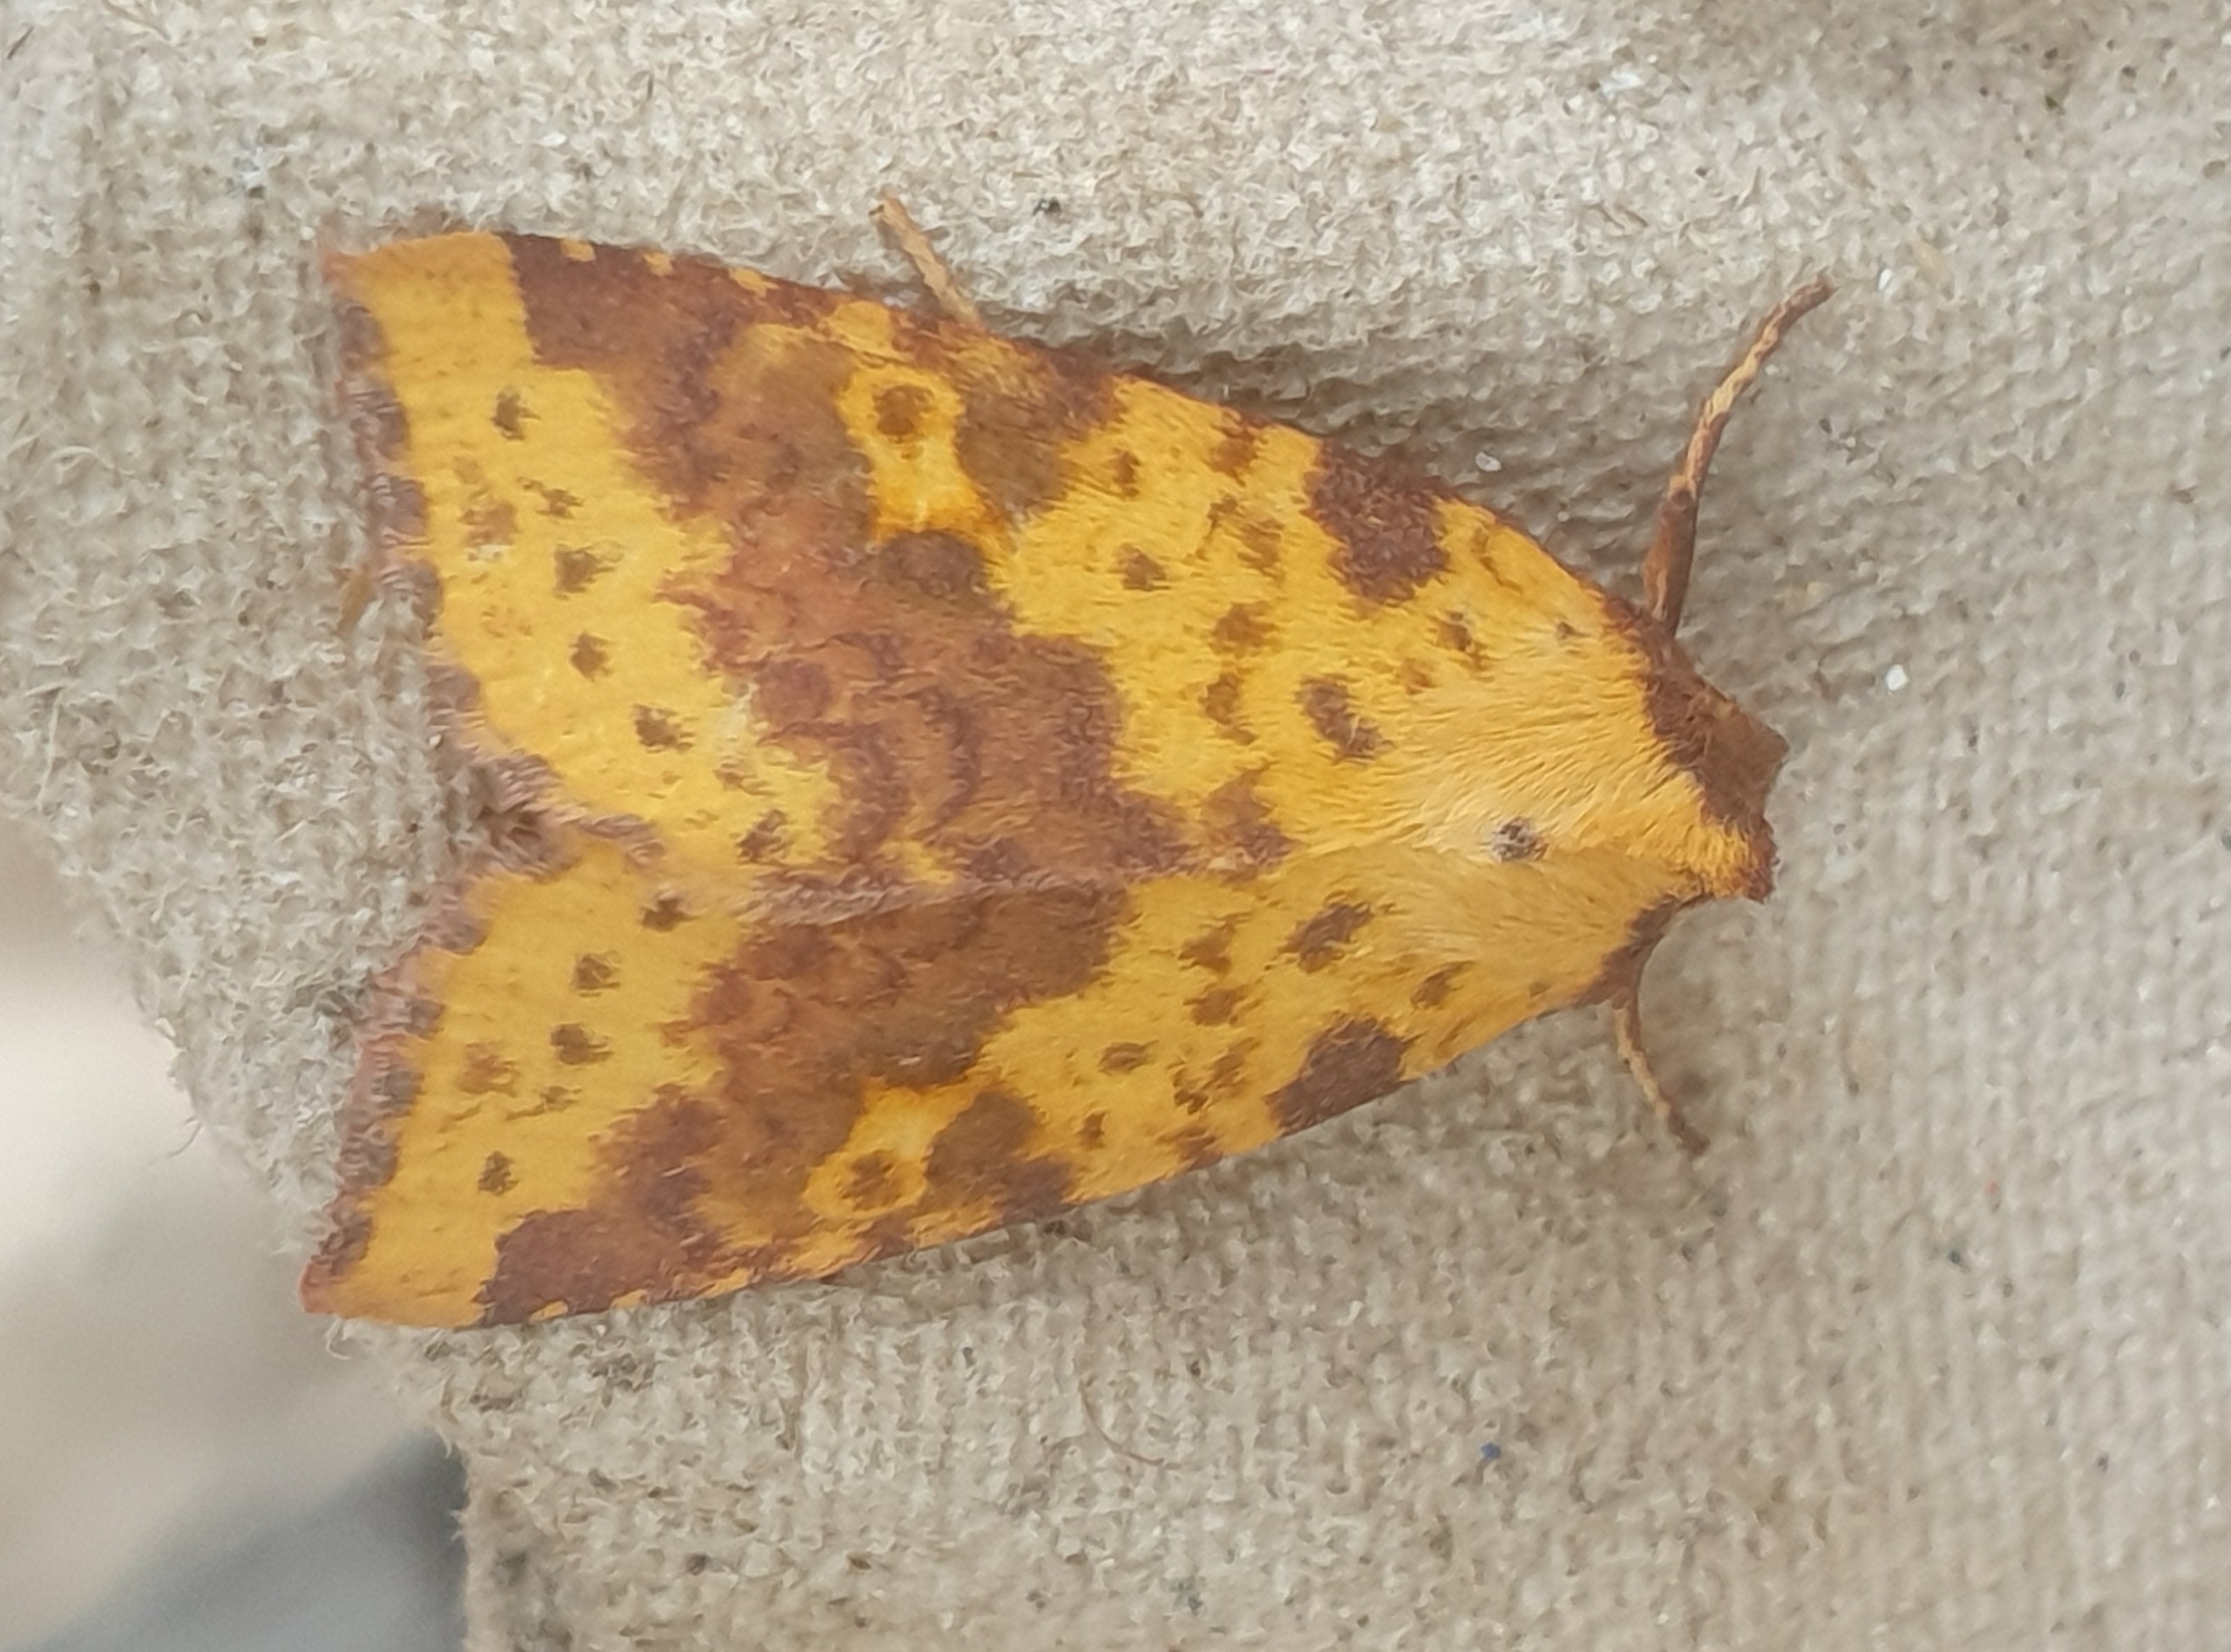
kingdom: Animalia
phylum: Arthropoda
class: Insecta
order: Lepidoptera
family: Noctuidae
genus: Xanthia
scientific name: Xanthia togata
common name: Toga-septemberugle
